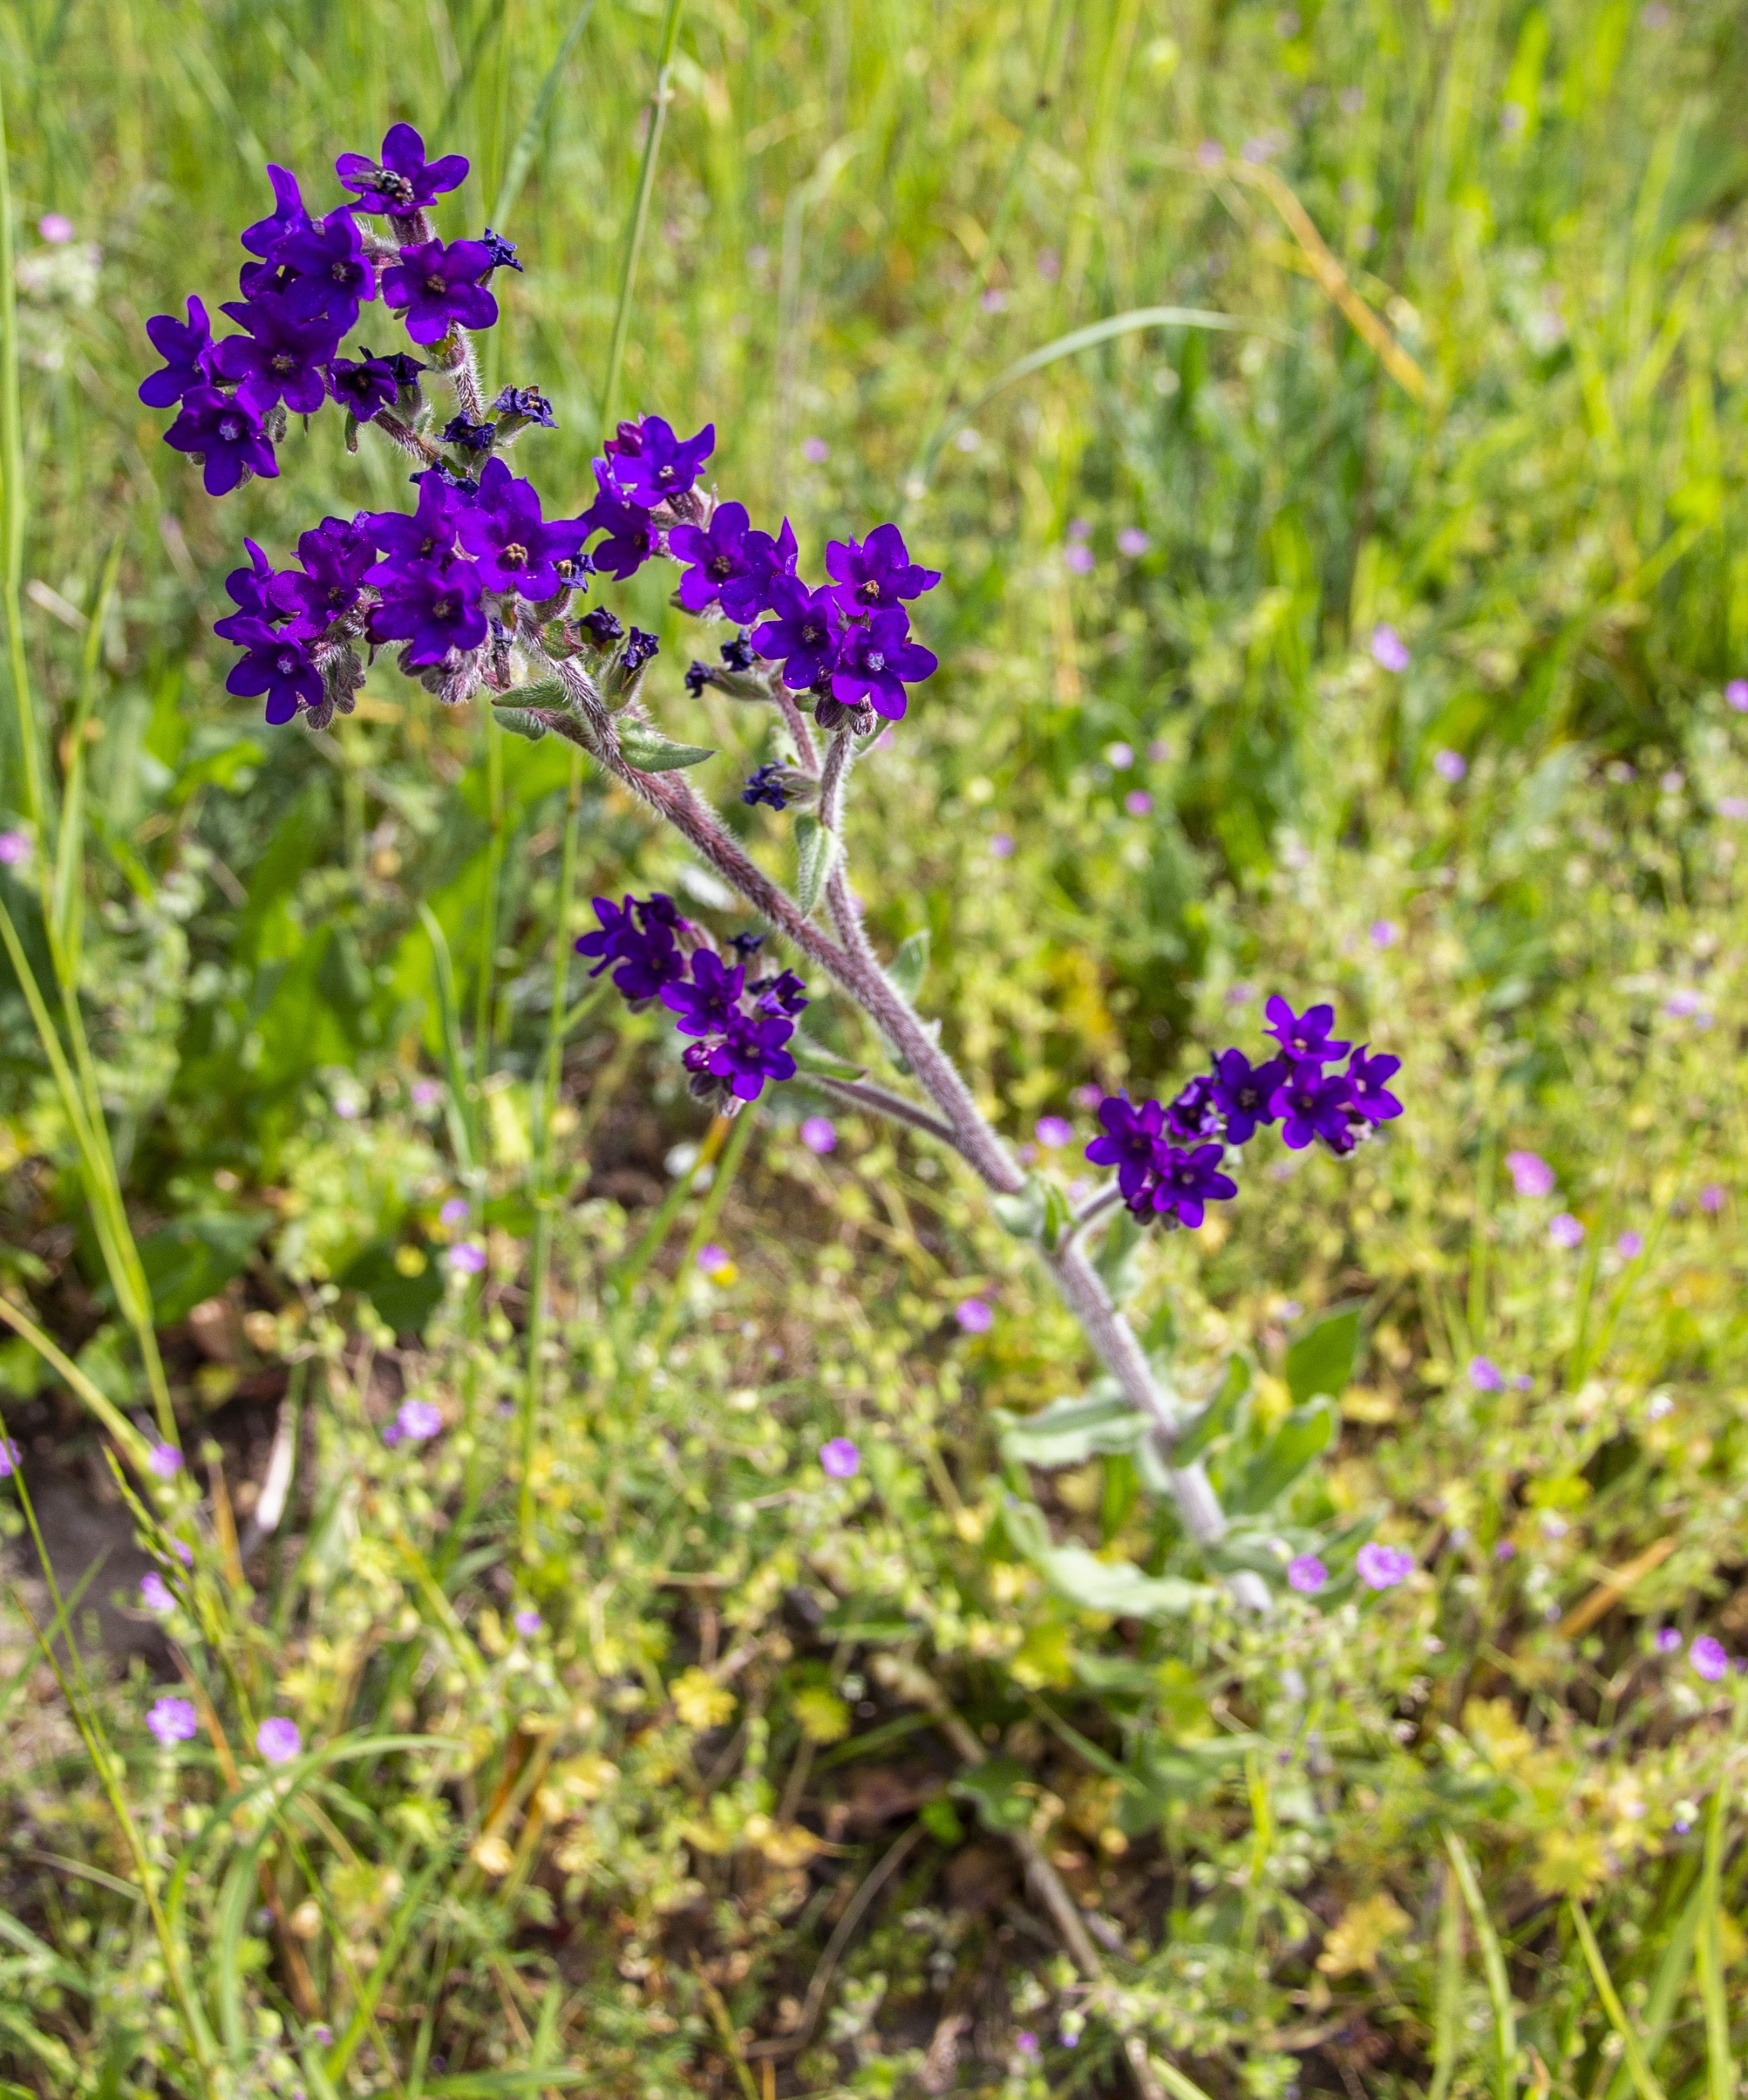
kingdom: Plantae
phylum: Tracheophyta
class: Magnoliopsida
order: Boraginales
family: Boraginaceae
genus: Anchusa
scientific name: Anchusa officinalis
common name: Læge-oksetunge
